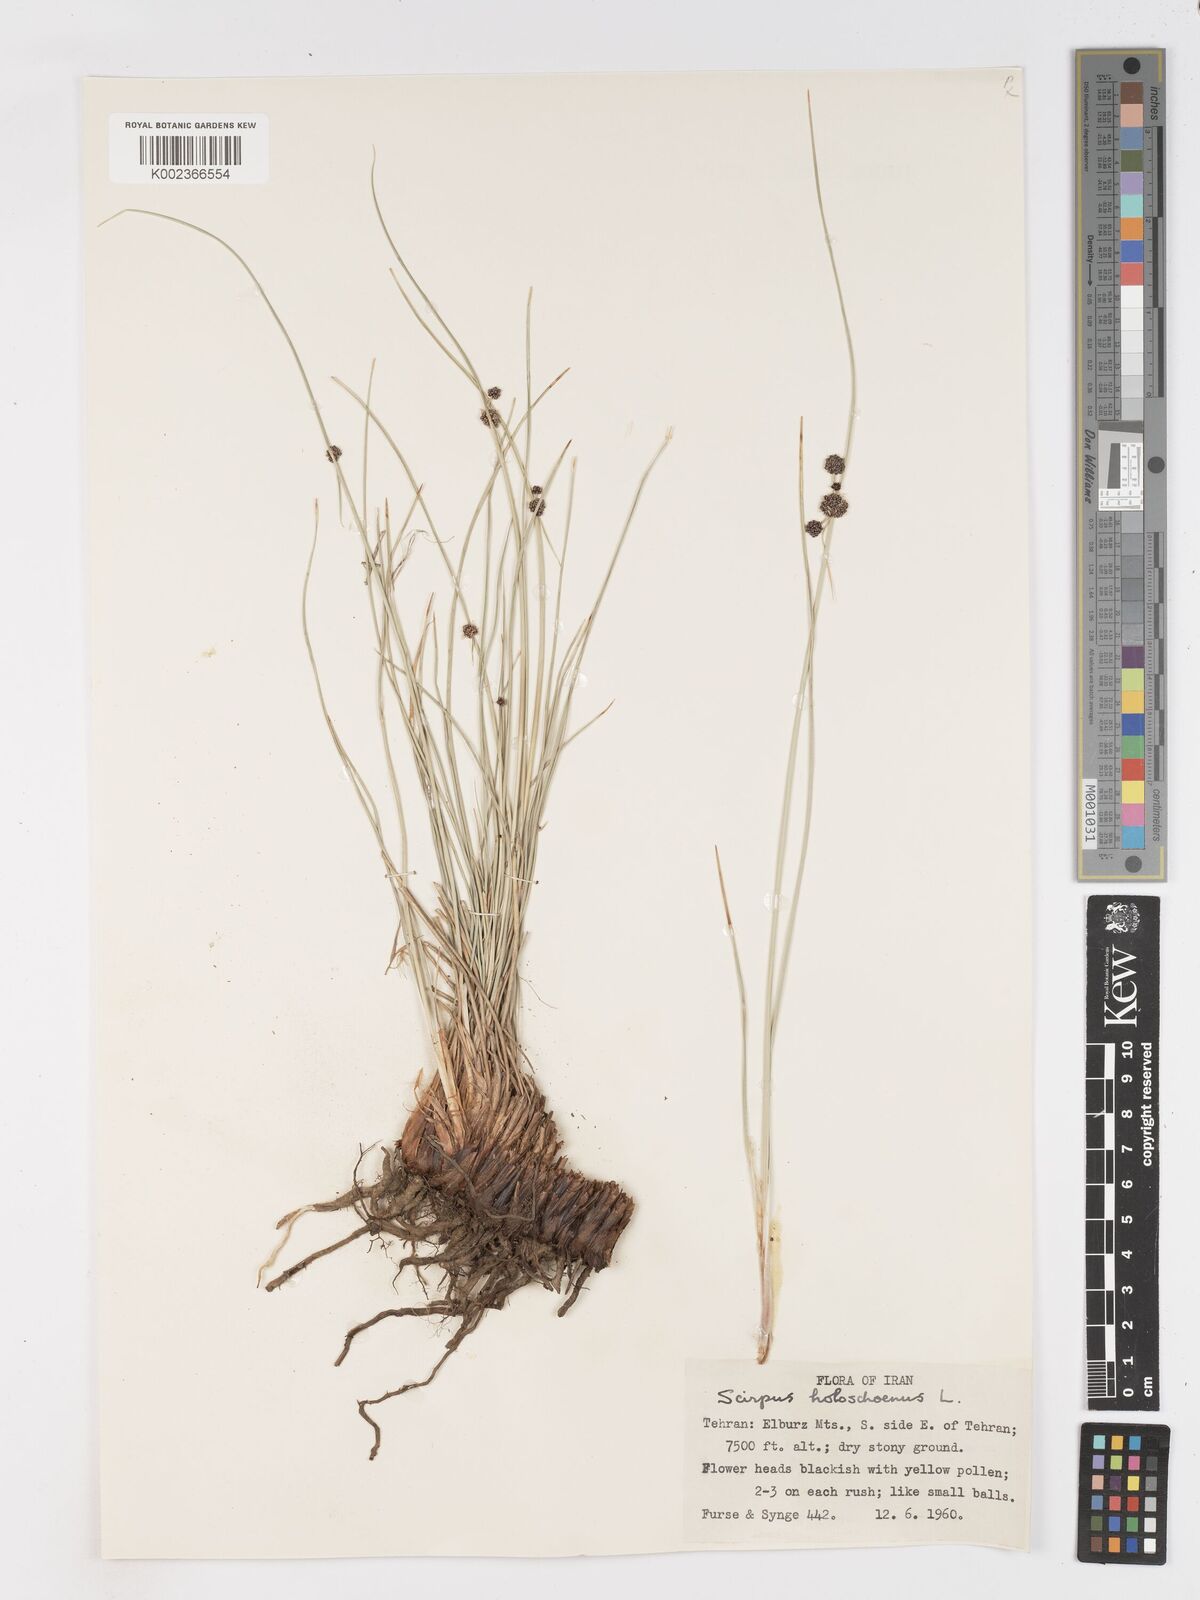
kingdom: Plantae
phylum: Tracheophyta
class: Liliopsida
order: Poales
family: Cyperaceae
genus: Scirpoides
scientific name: Scirpoides holoschoenus
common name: Round-headed club-rush
